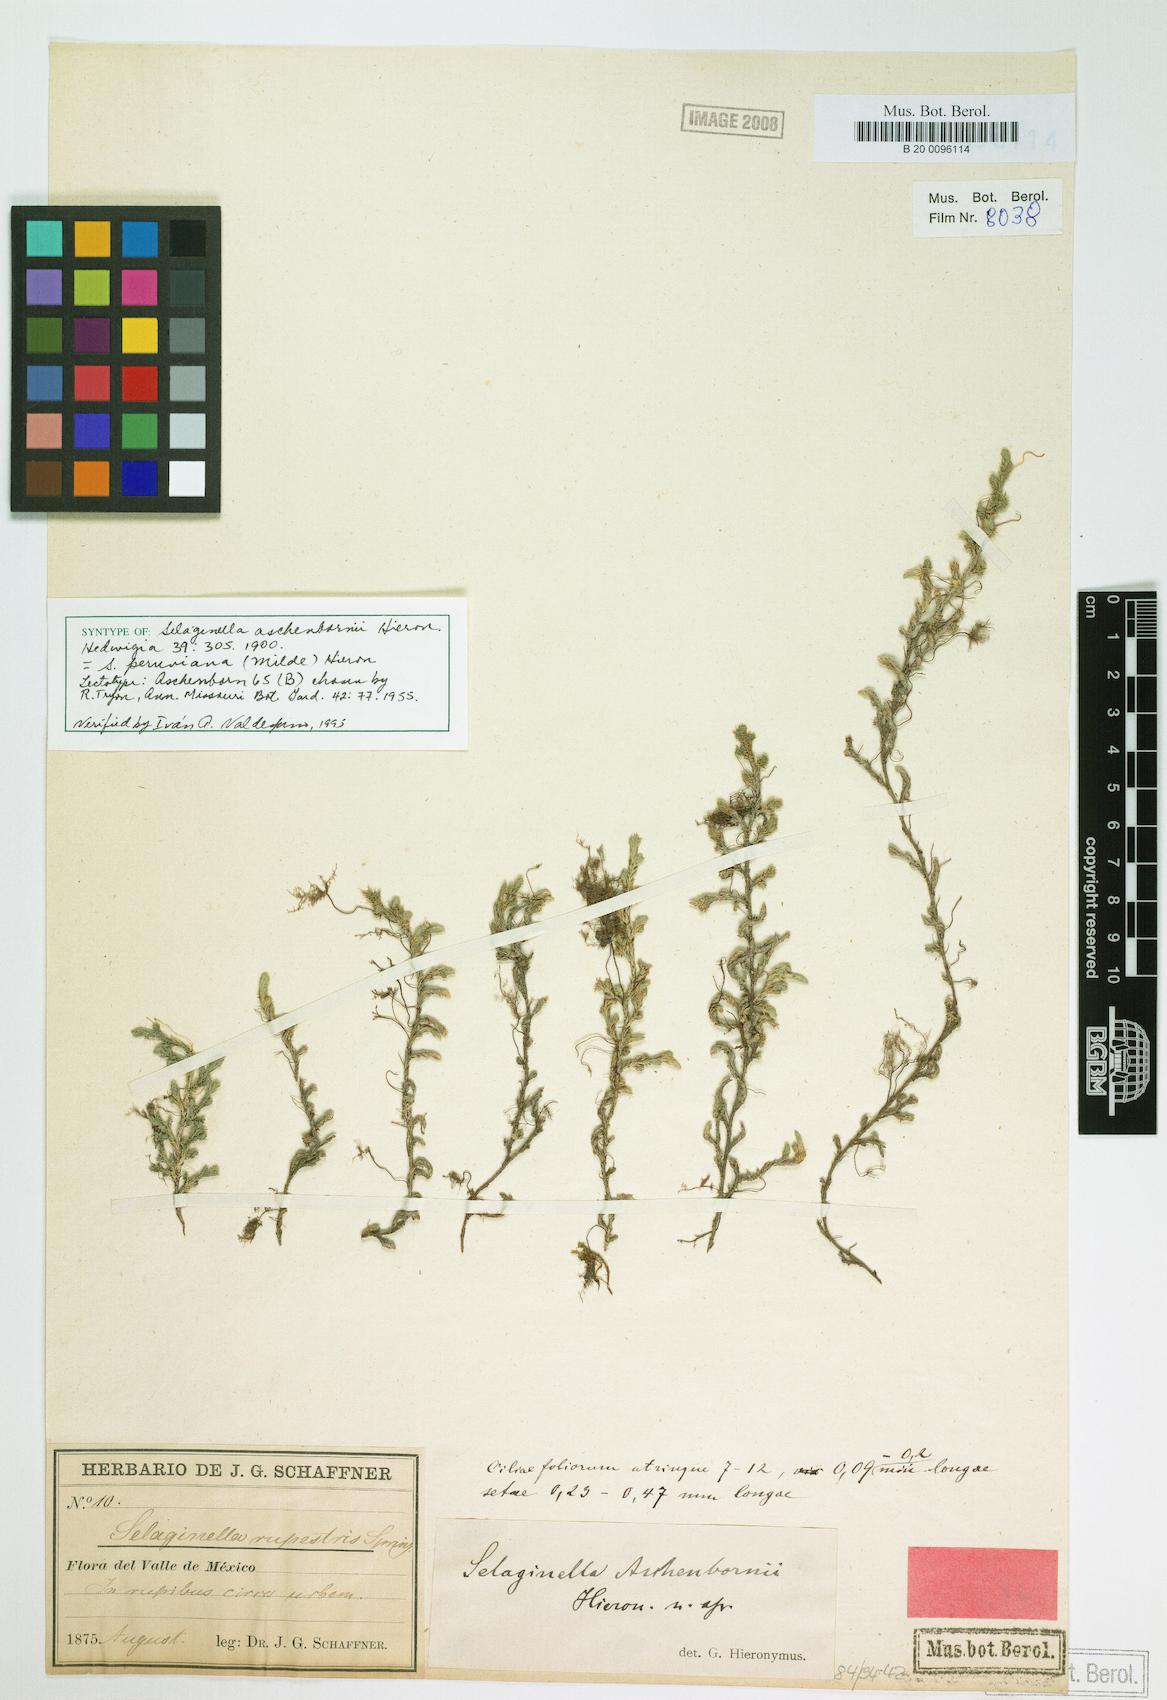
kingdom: Plantae
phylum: Tracheophyta
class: Lycopodiopsida
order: Selaginellales
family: Selaginellaceae
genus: Selaginella
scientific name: Selaginella peruviana
